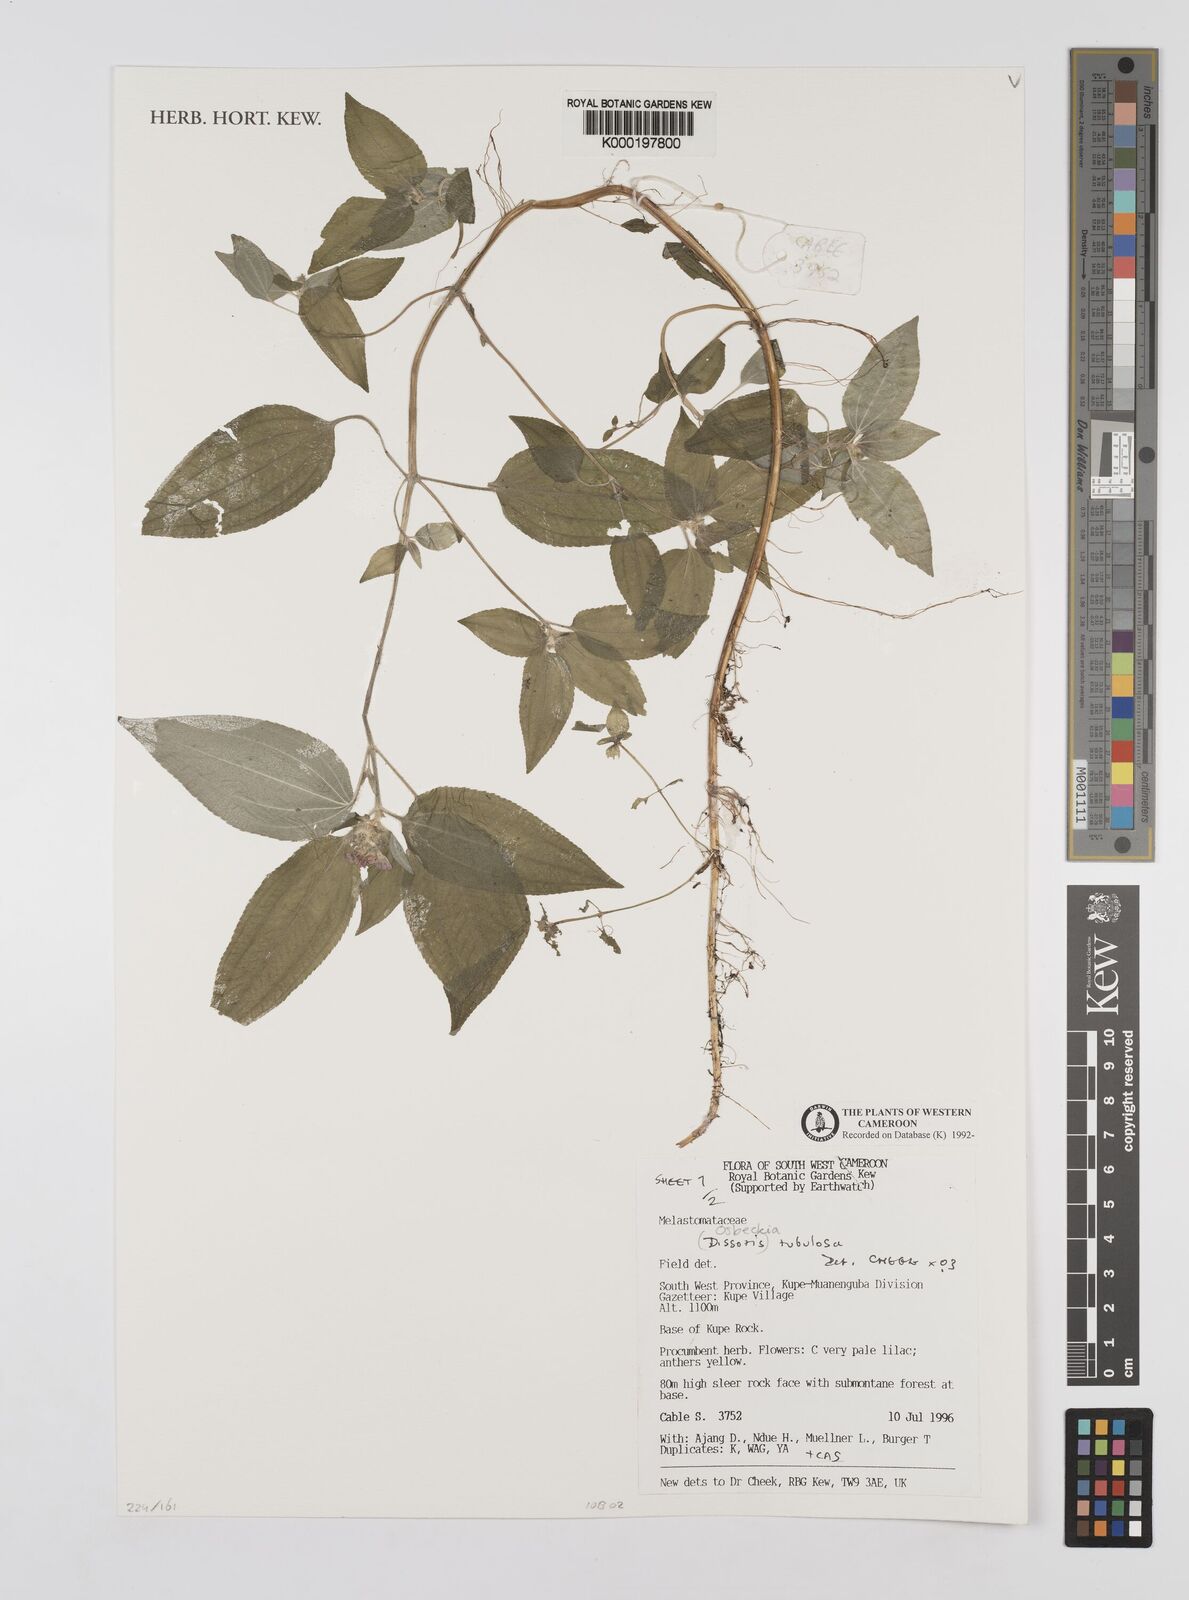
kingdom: Plantae
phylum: Tracheophyta
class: Magnoliopsida
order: Myrtales
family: Melastomataceae
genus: Derosiphia
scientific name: Derosiphia tubulosa
